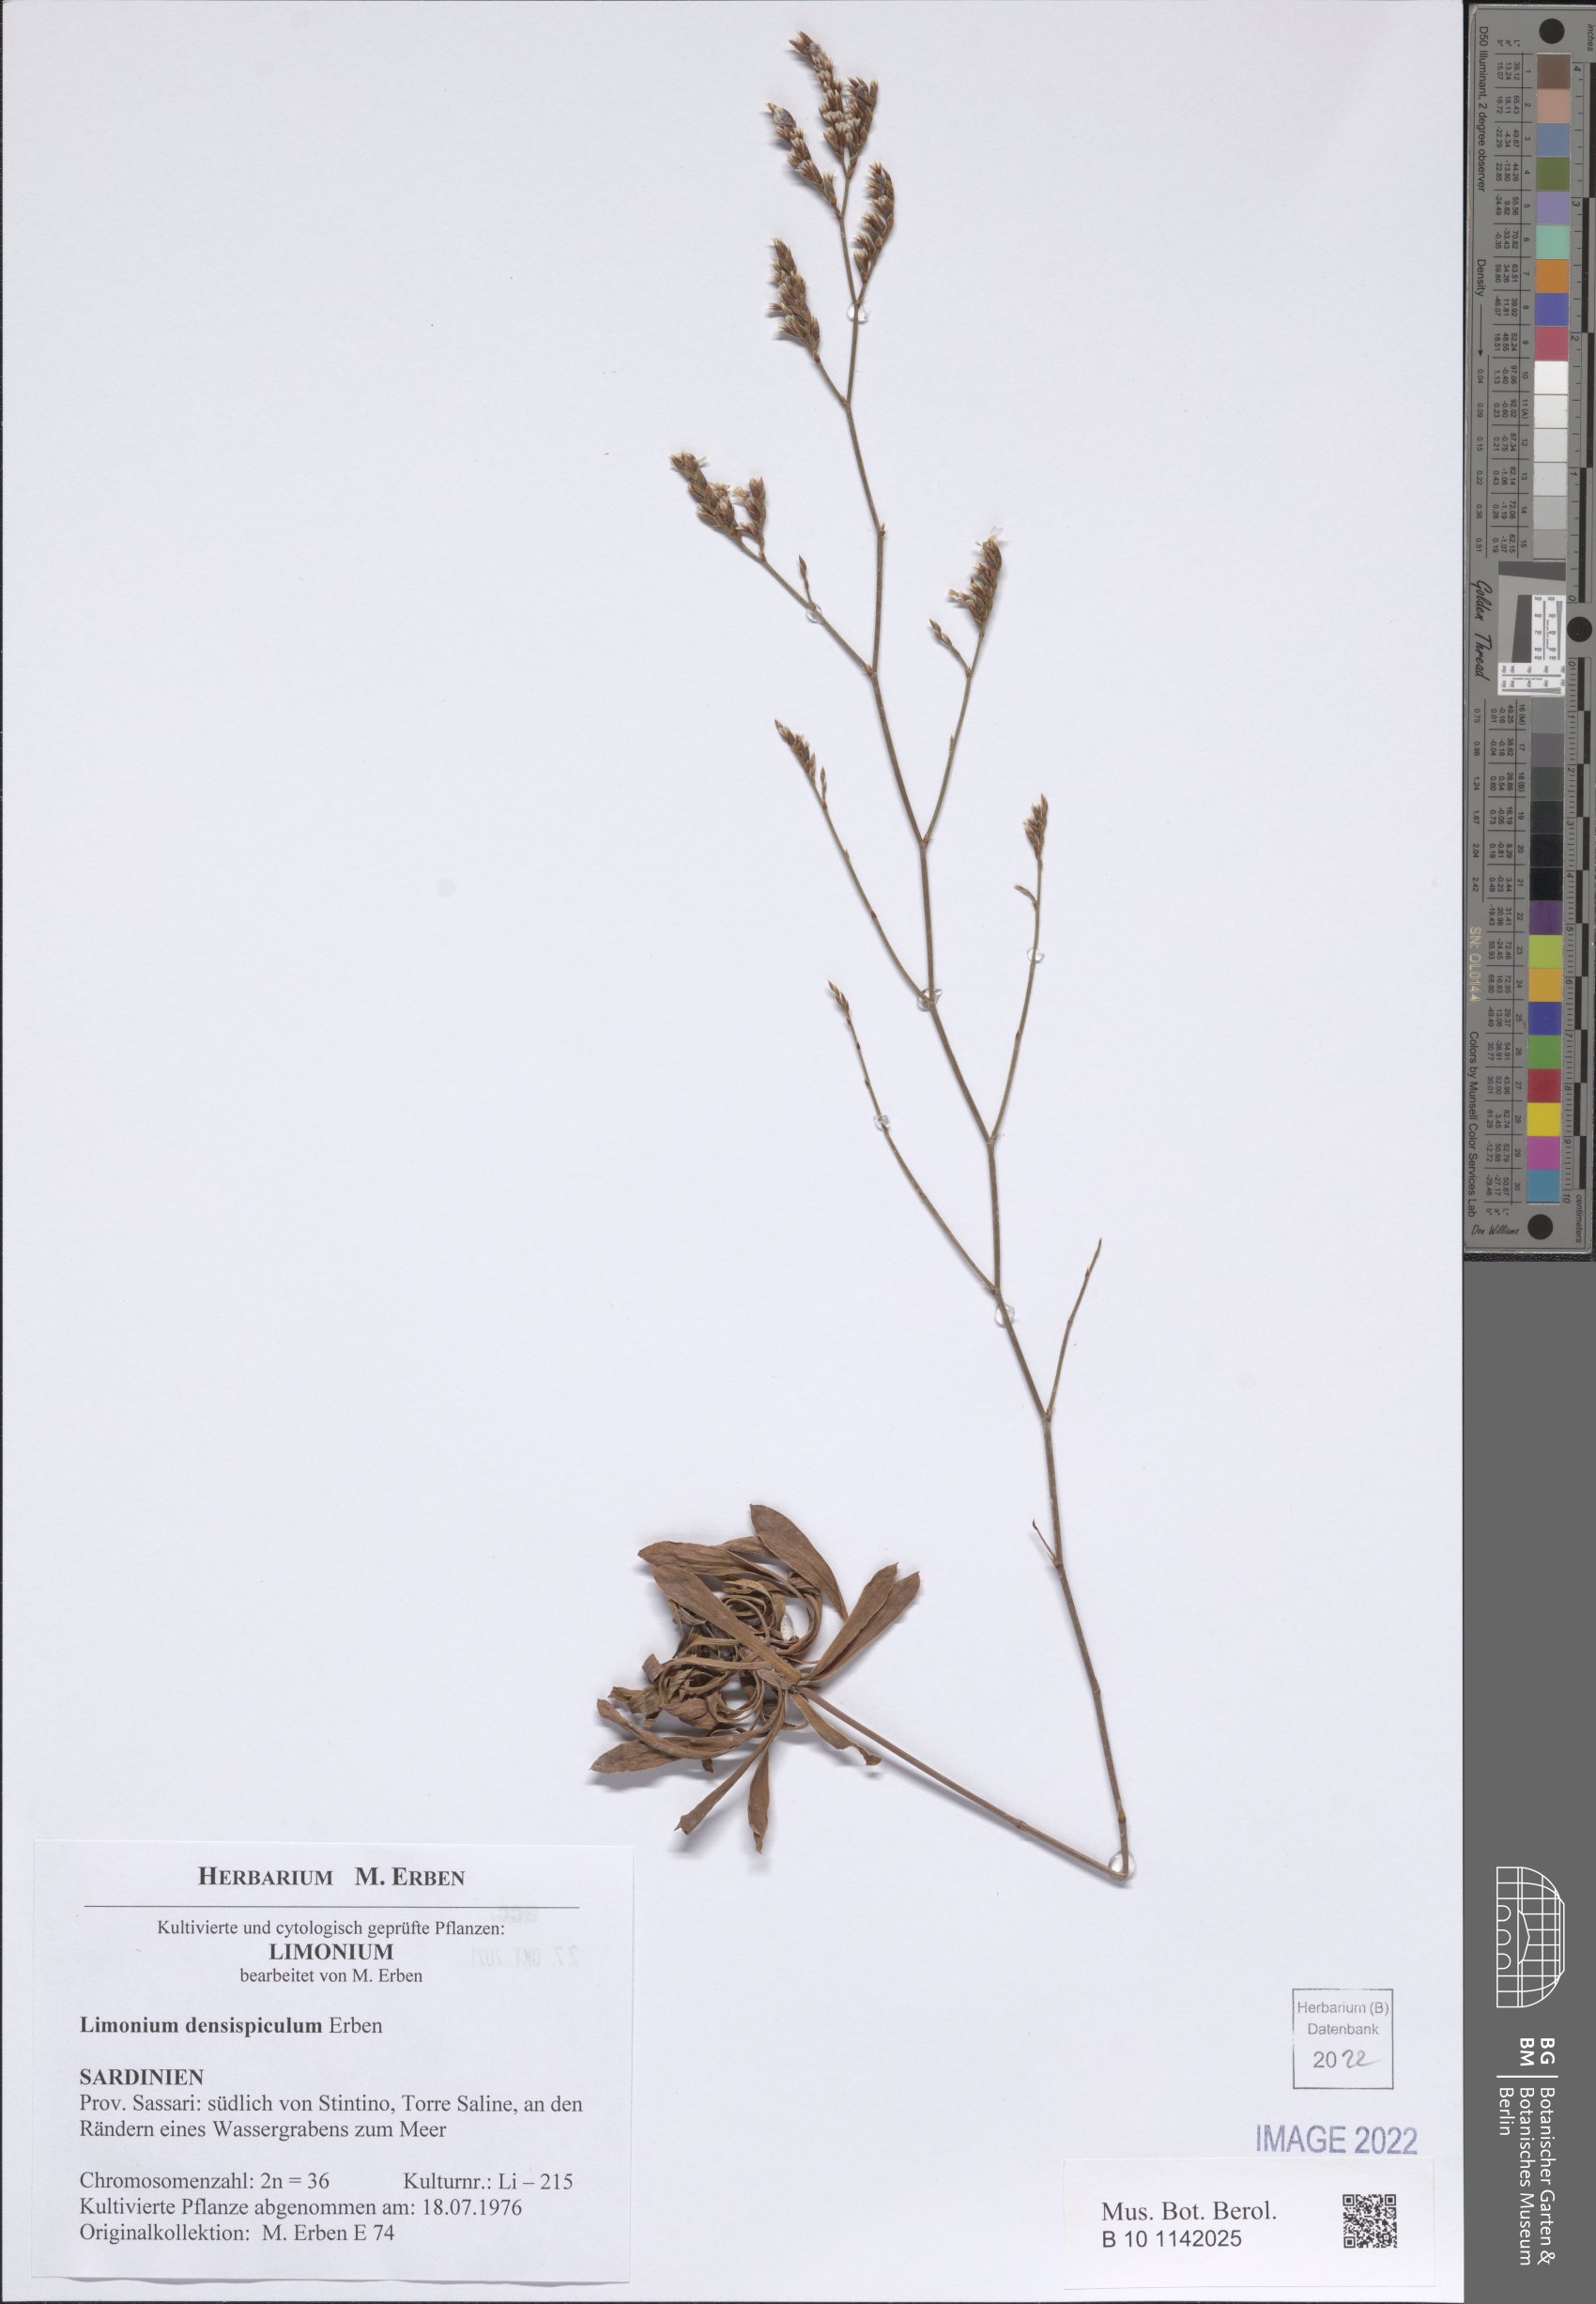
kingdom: Plantae
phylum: Tracheophyta
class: Magnoliopsida
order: Caryophyllales
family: Plumbaginaceae
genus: Limonium
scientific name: Limonium
